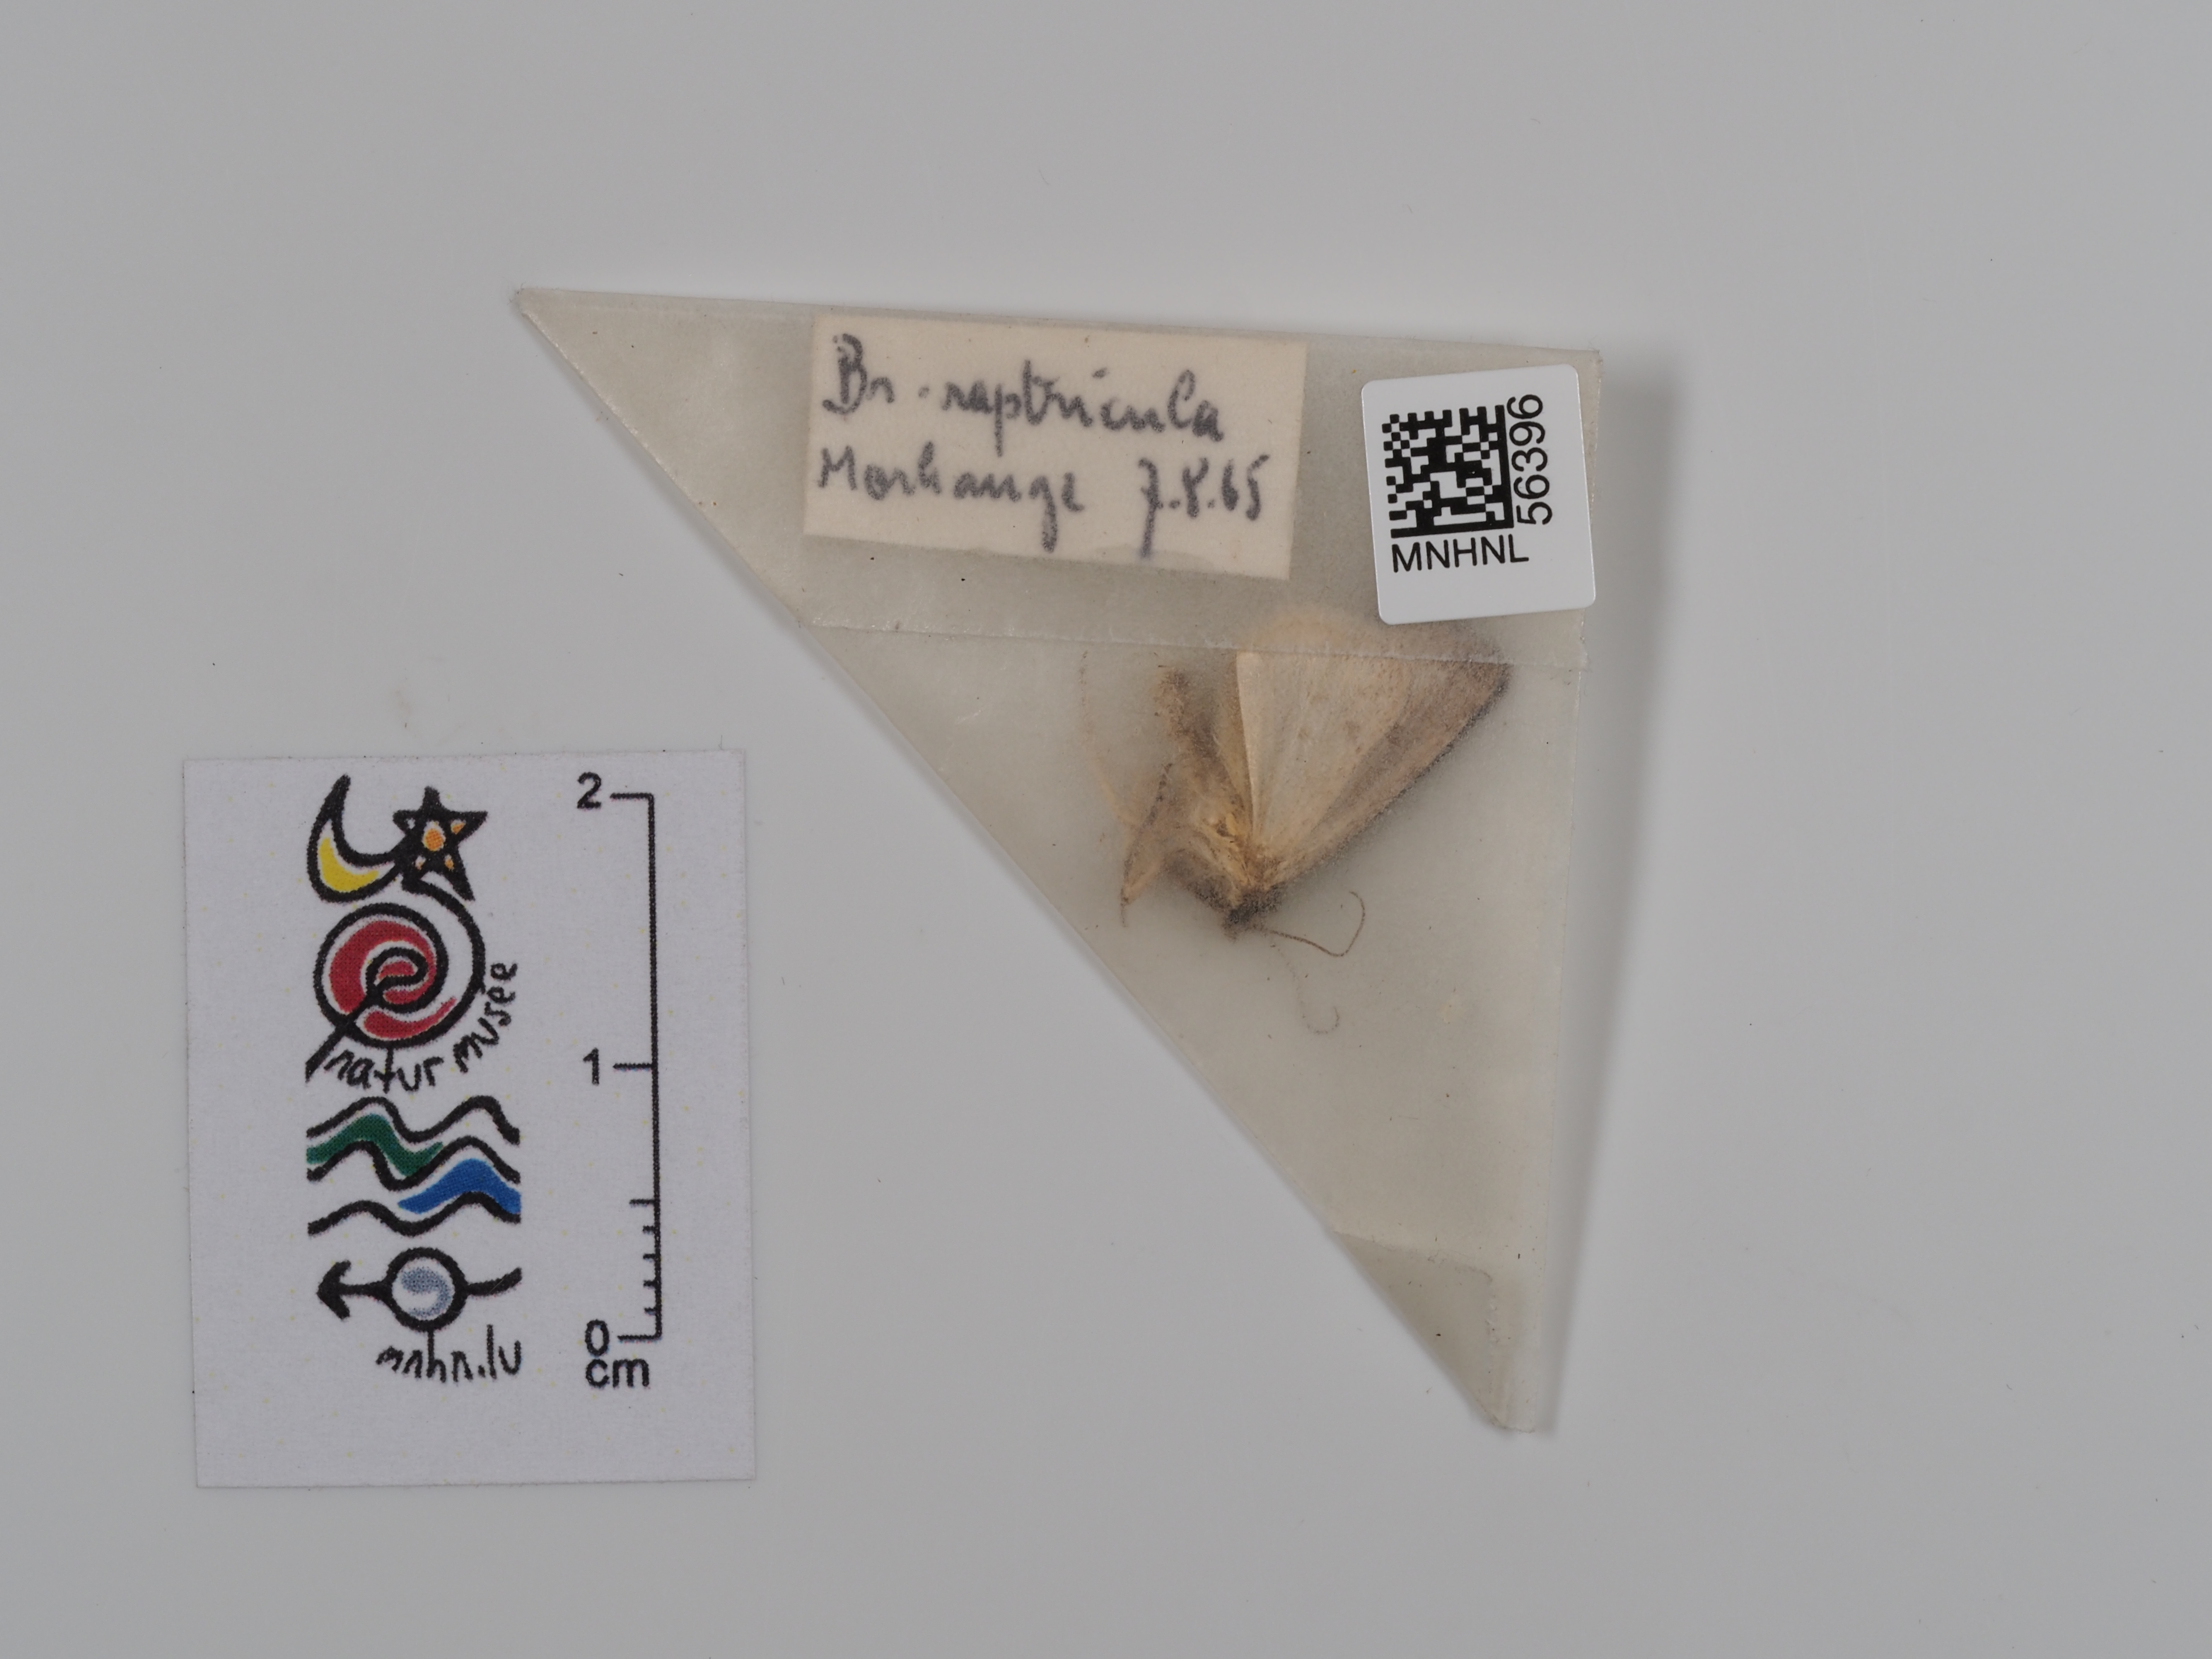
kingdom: Animalia
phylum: Arthropoda
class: Insecta
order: Lepidoptera
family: Noctuidae
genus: Bryophila
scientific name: Bryophila raptricula
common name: Marbled grey
